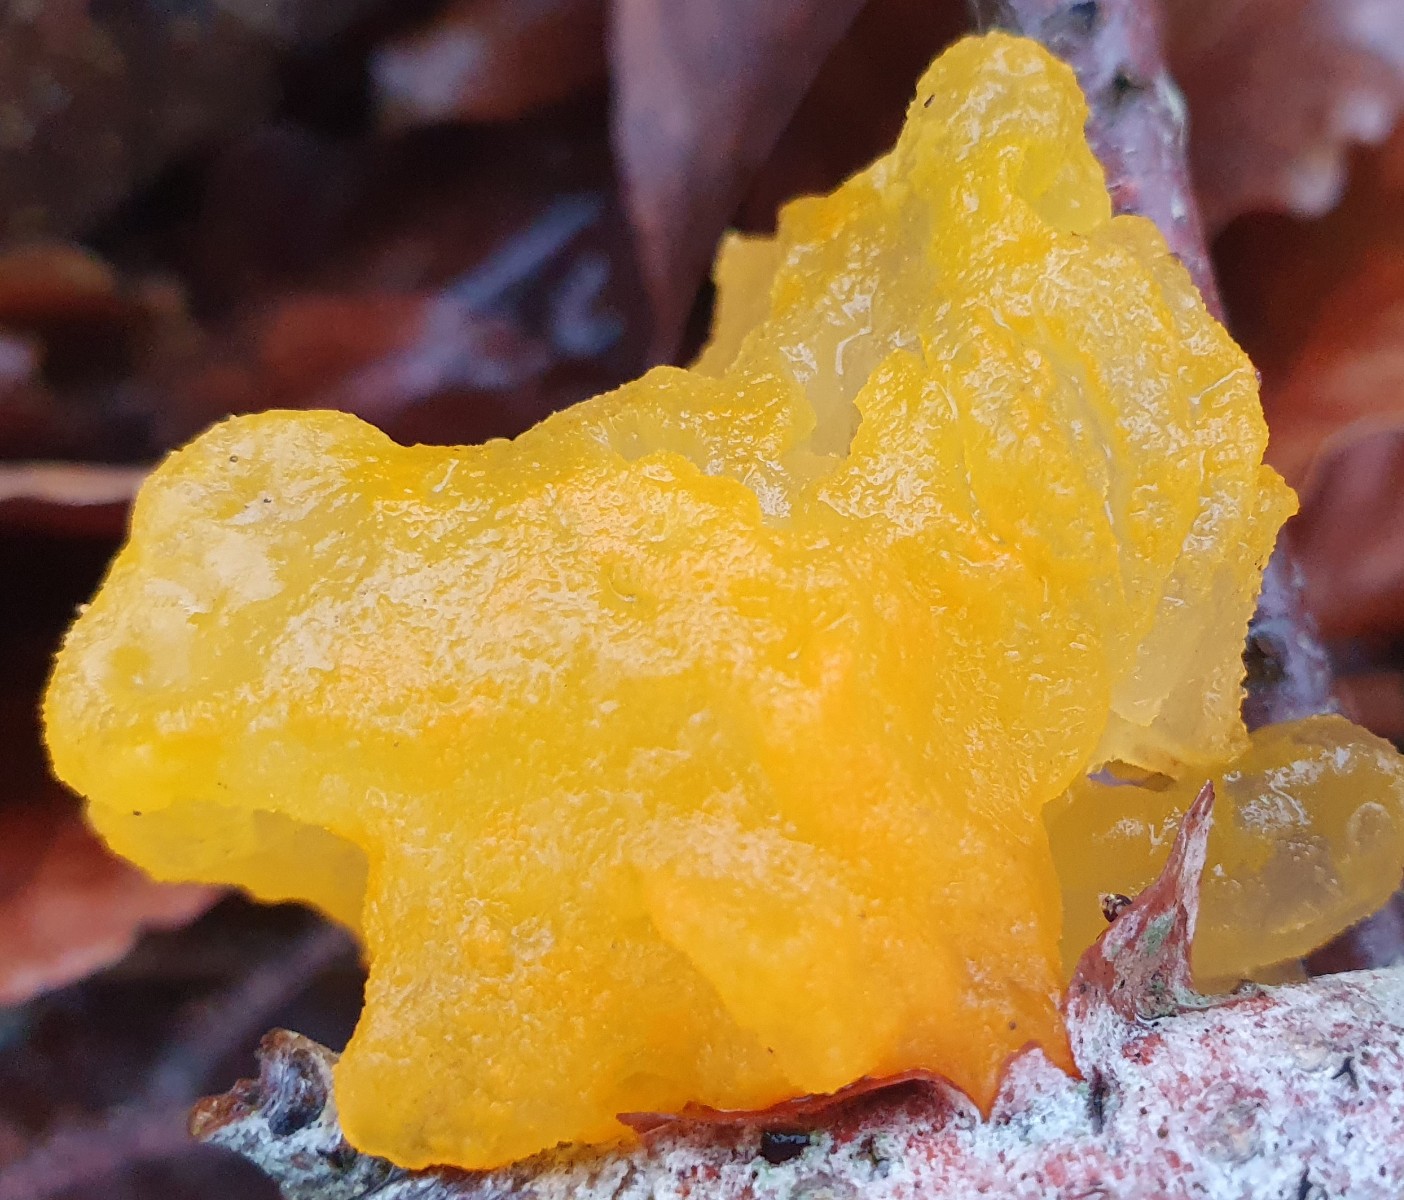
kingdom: Fungi
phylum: Basidiomycota
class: Tremellomycetes
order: Tremellales
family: Tremellaceae
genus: Tremella
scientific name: Tremella mesenterica
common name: gul bævresvamp
